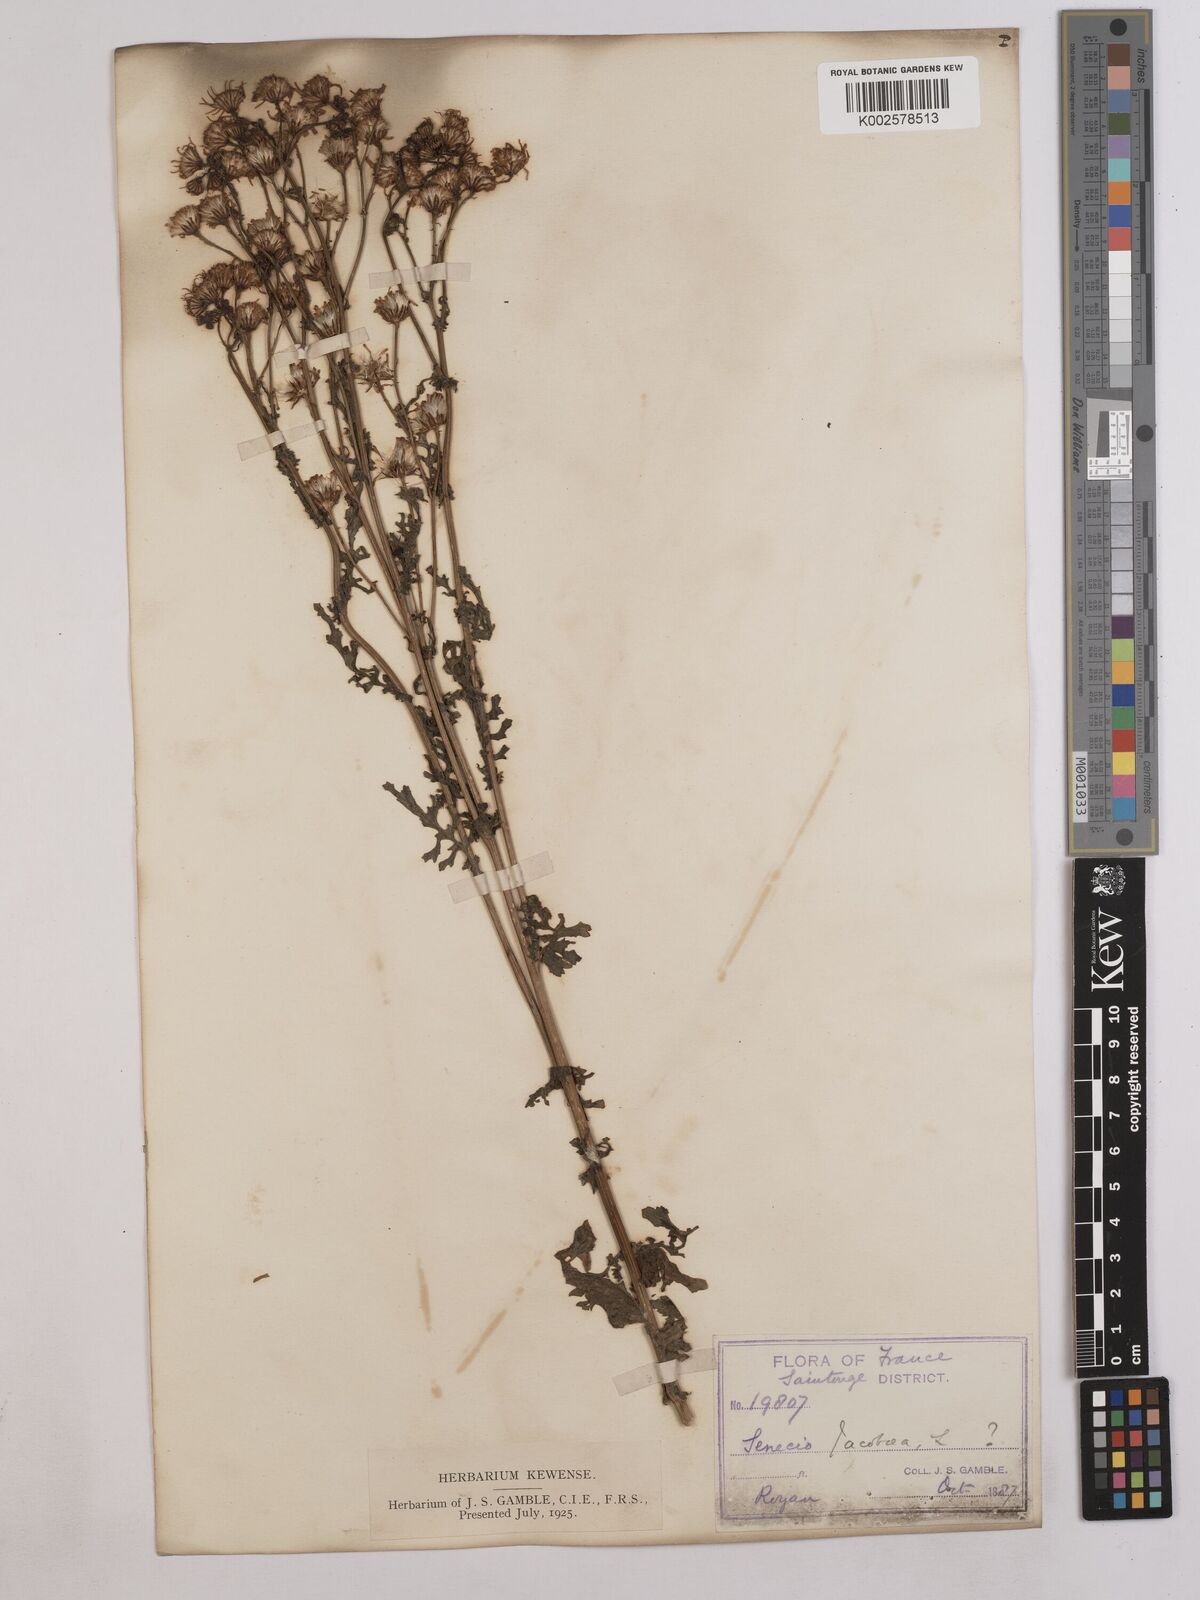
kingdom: Plantae
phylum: Tracheophyta
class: Magnoliopsida
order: Asterales
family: Asteraceae
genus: Jacobaea
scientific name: Jacobaea vulgaris
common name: Stinking willie
